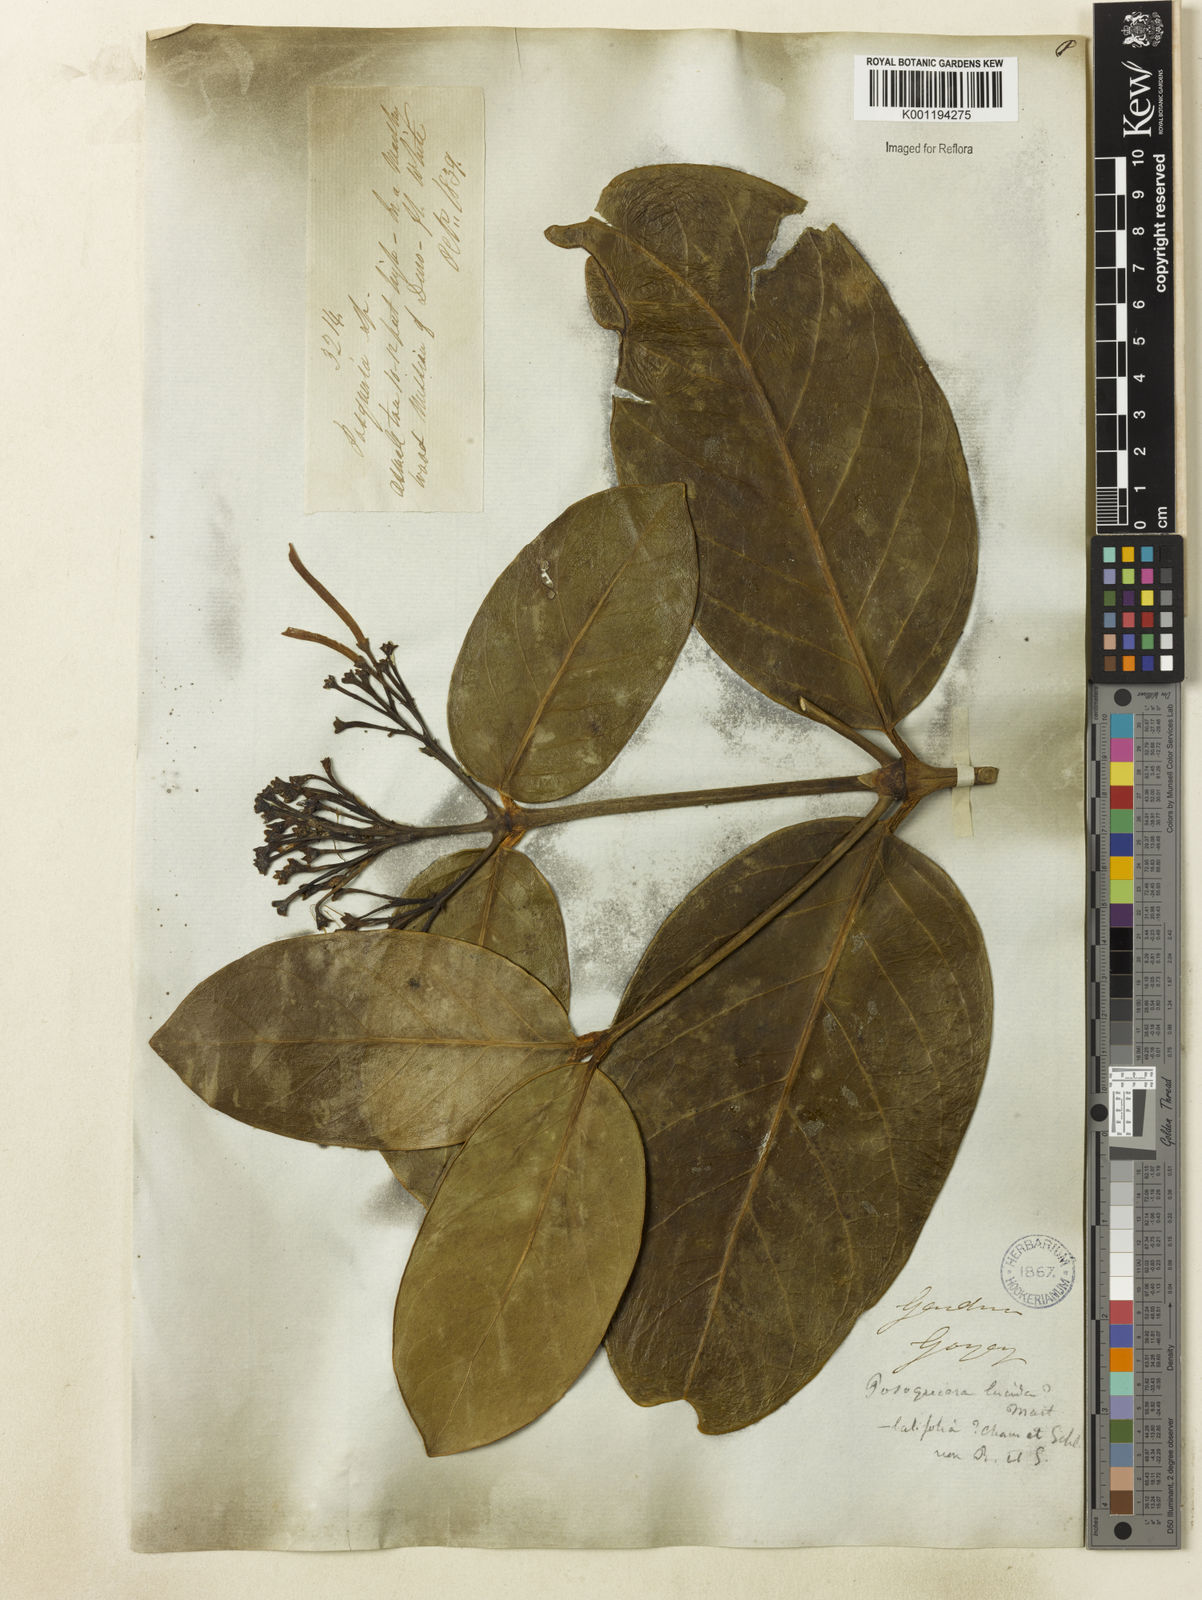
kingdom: Plantae
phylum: Tracheophyta
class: Magnoliopsida
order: Gentianales
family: Rubiaceae
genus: Posoqueria
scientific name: Posoqueria latifolia
